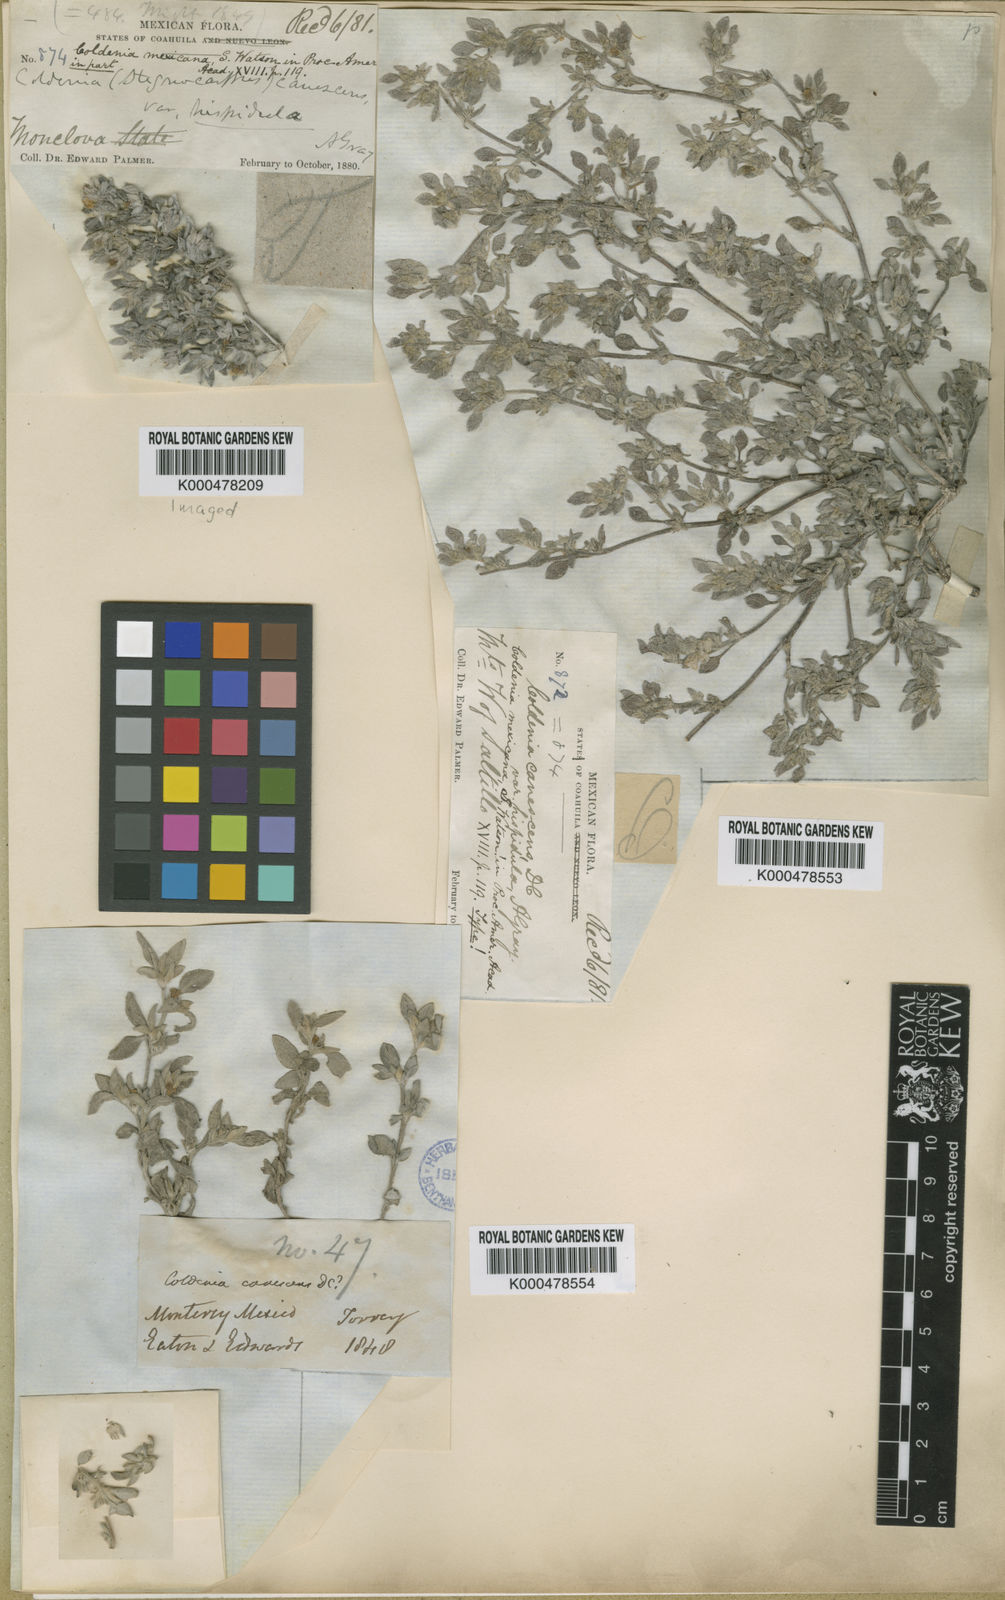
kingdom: Plantae
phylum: Tracheophyta
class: Magnoliopsida
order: Boraginales
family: Ehretiaceae
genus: Tiquilia
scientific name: Tiquilia canescens
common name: Hairy tiquilia
